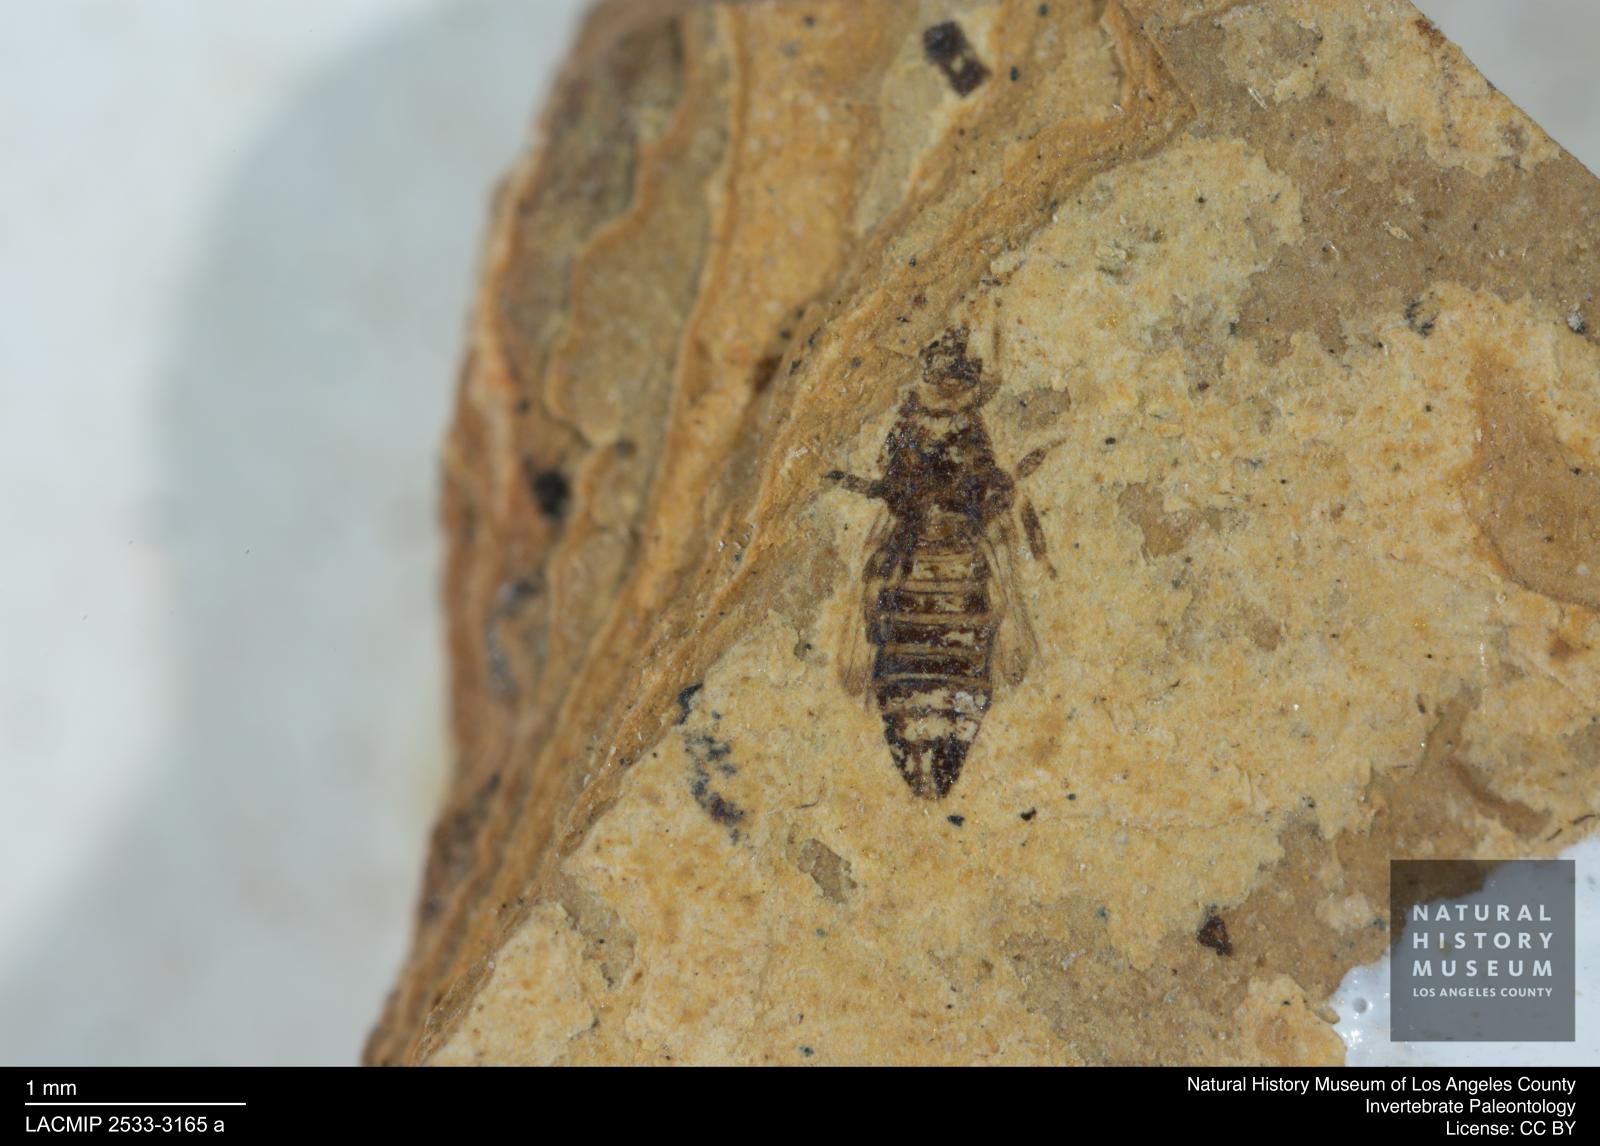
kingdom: Animalia
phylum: Arthropoda
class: Insecta
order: Thysanoptera
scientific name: Thysanoptera
